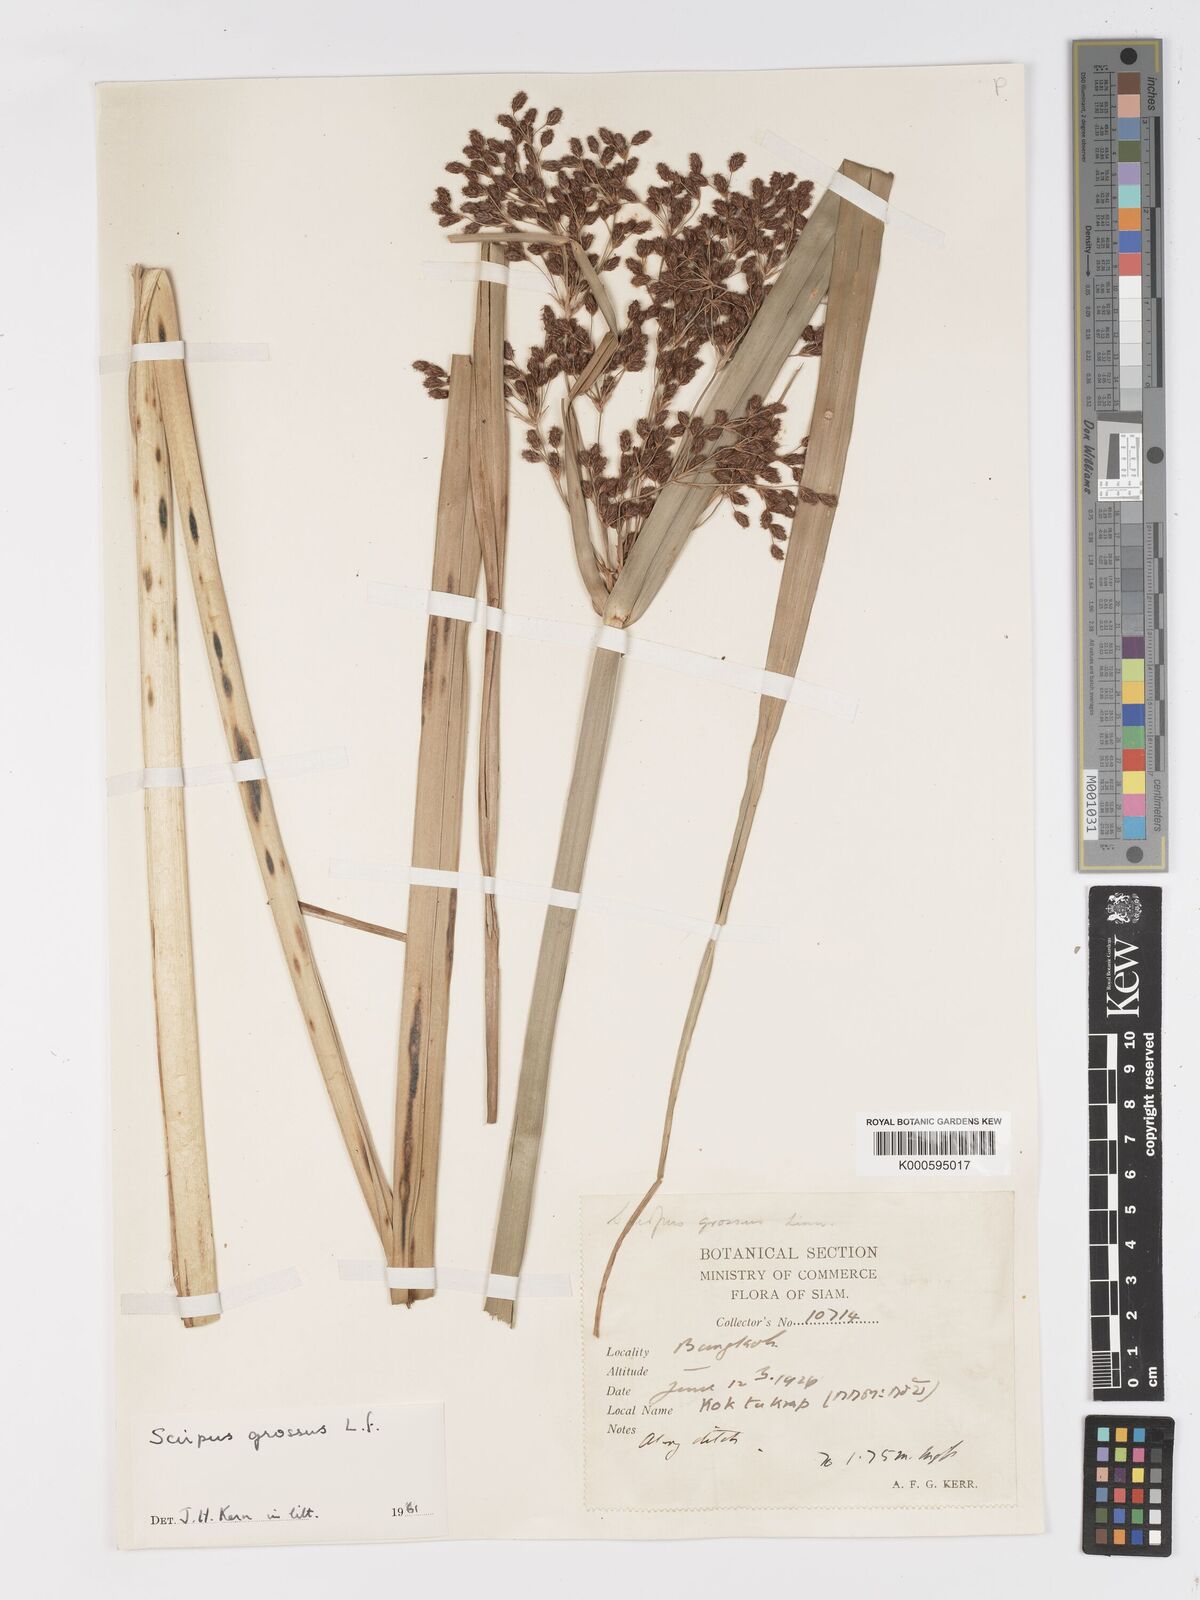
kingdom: Plantae
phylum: Tracheophyta
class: Liliopsida
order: Poales
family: Cyperaceae
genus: Actinoscirpus
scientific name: Actinoscirpus grossus
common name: Giant bur rush
